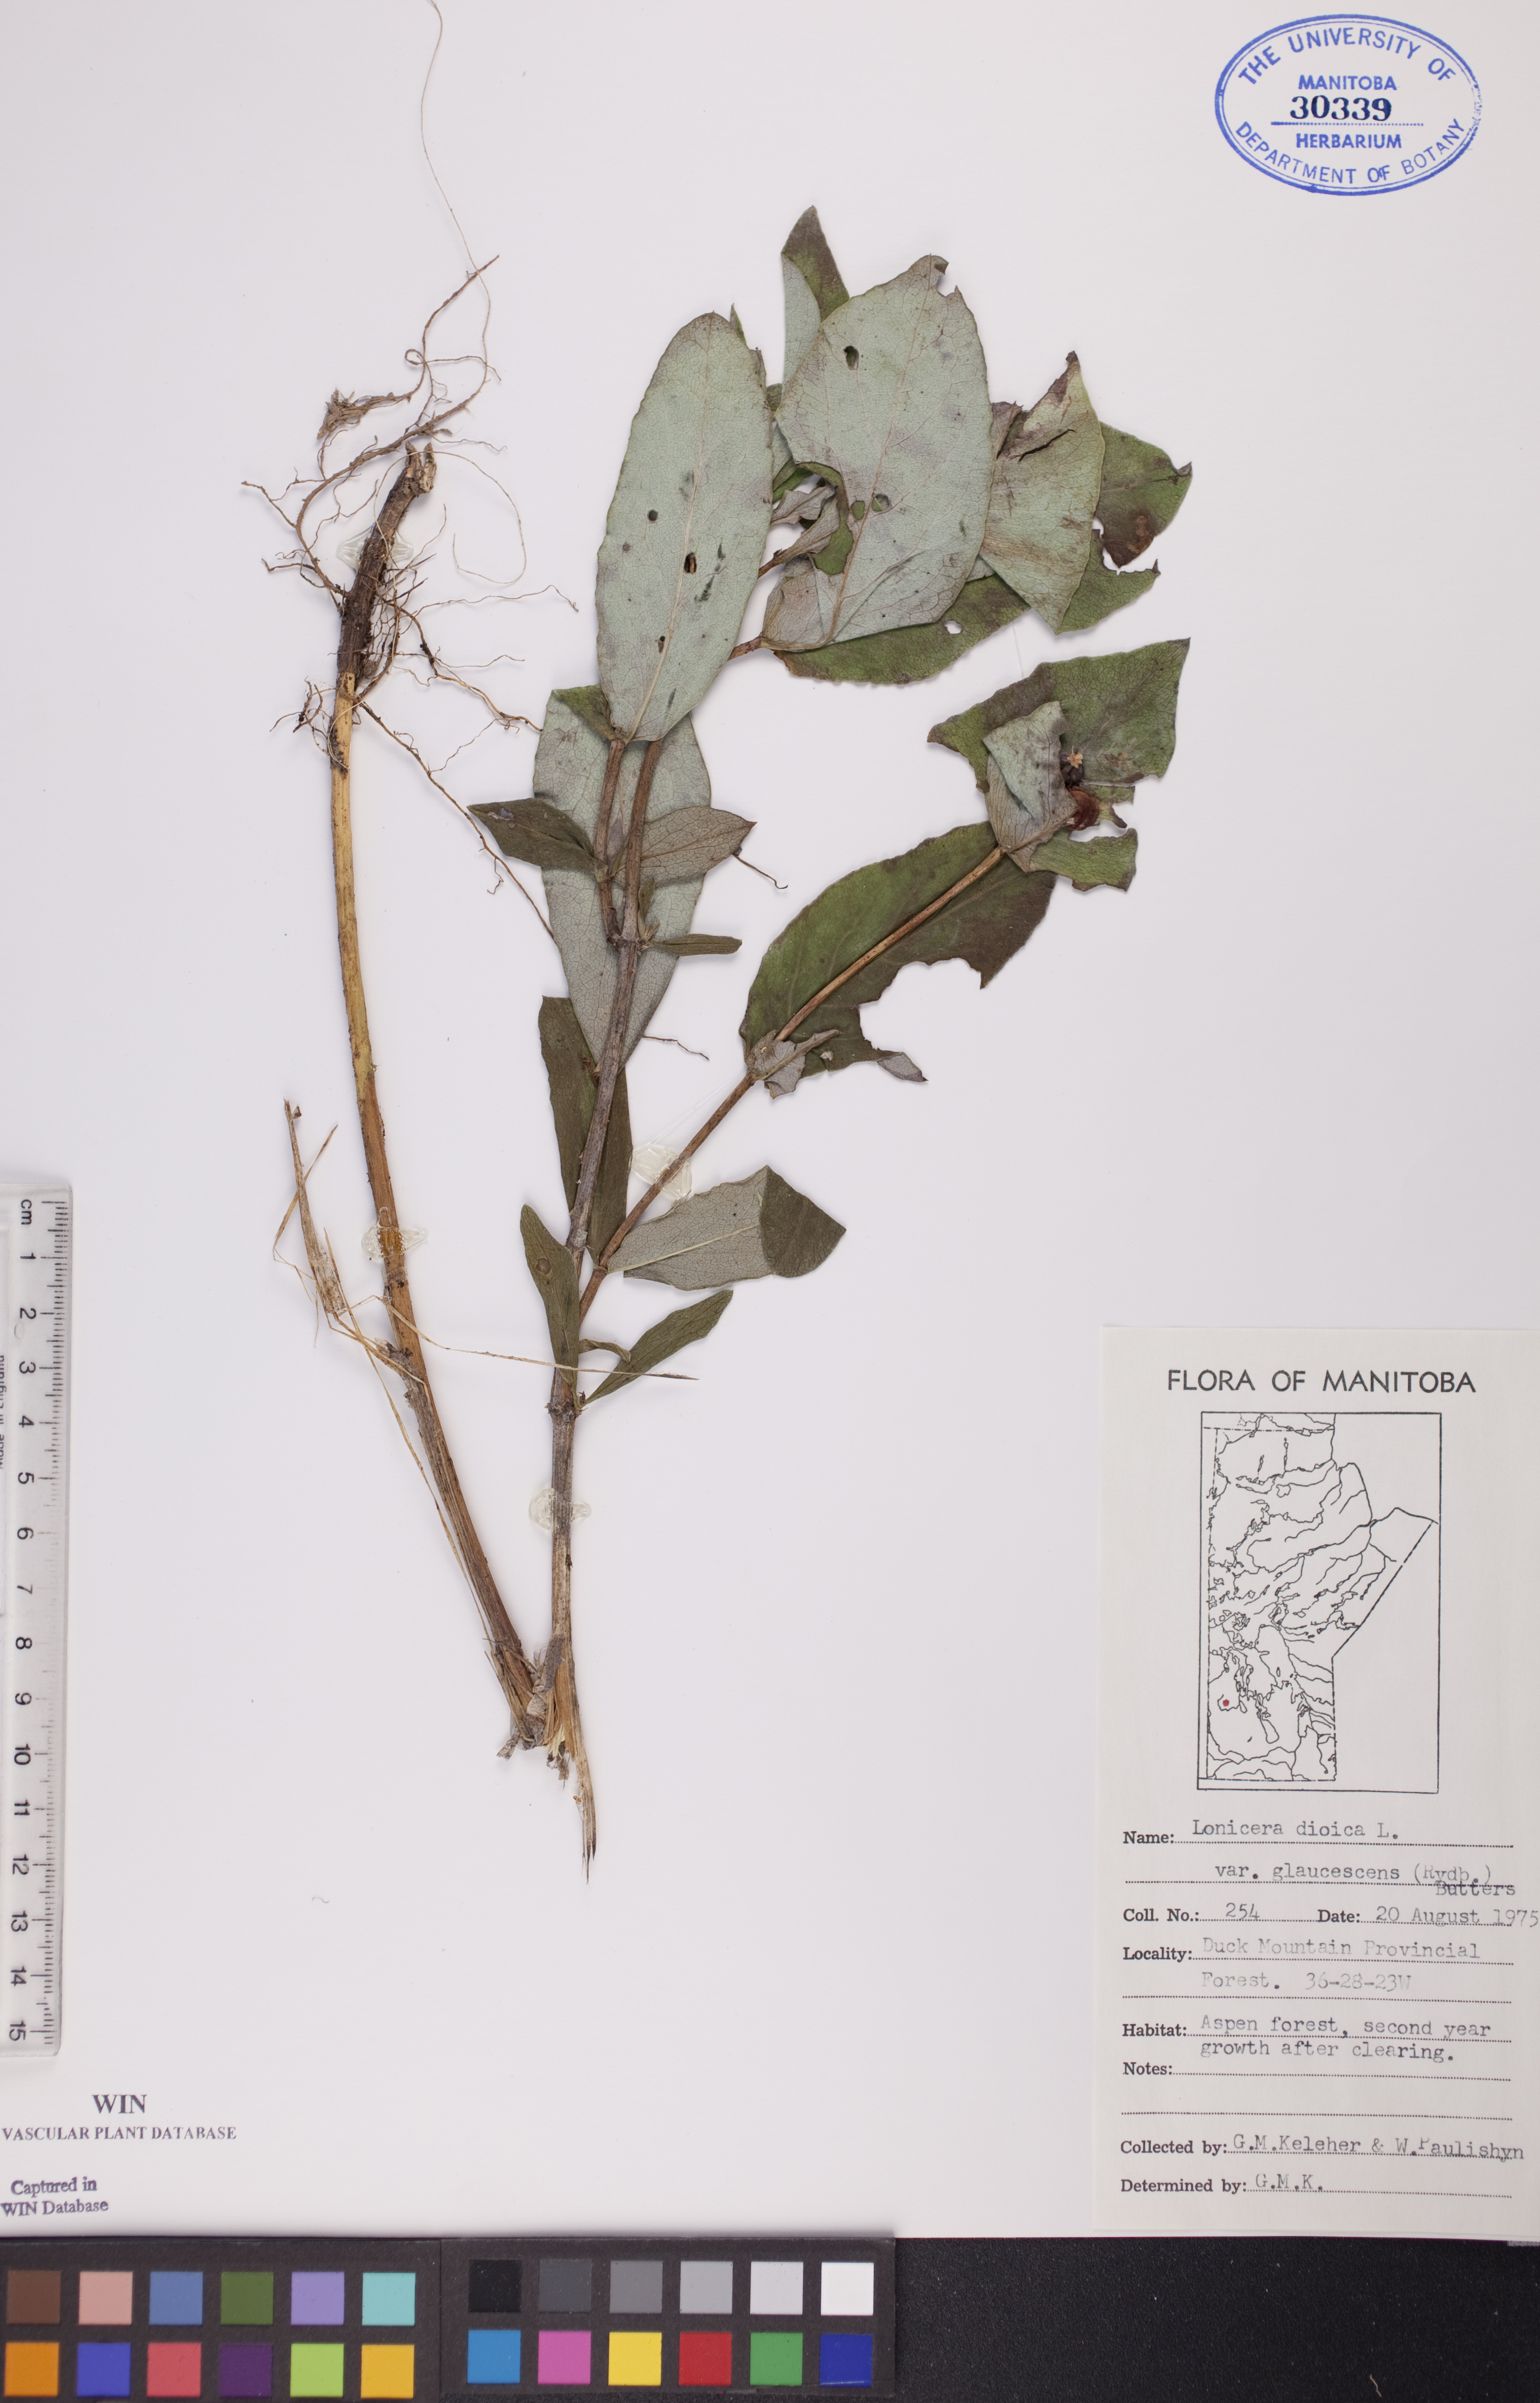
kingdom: Plantae
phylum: Tracheophyta
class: Magnoliopsida
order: Dipsacales
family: Caprifoliaceae
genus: Lonicera
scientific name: Lonicera dioica
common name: Limber honeysuckle
